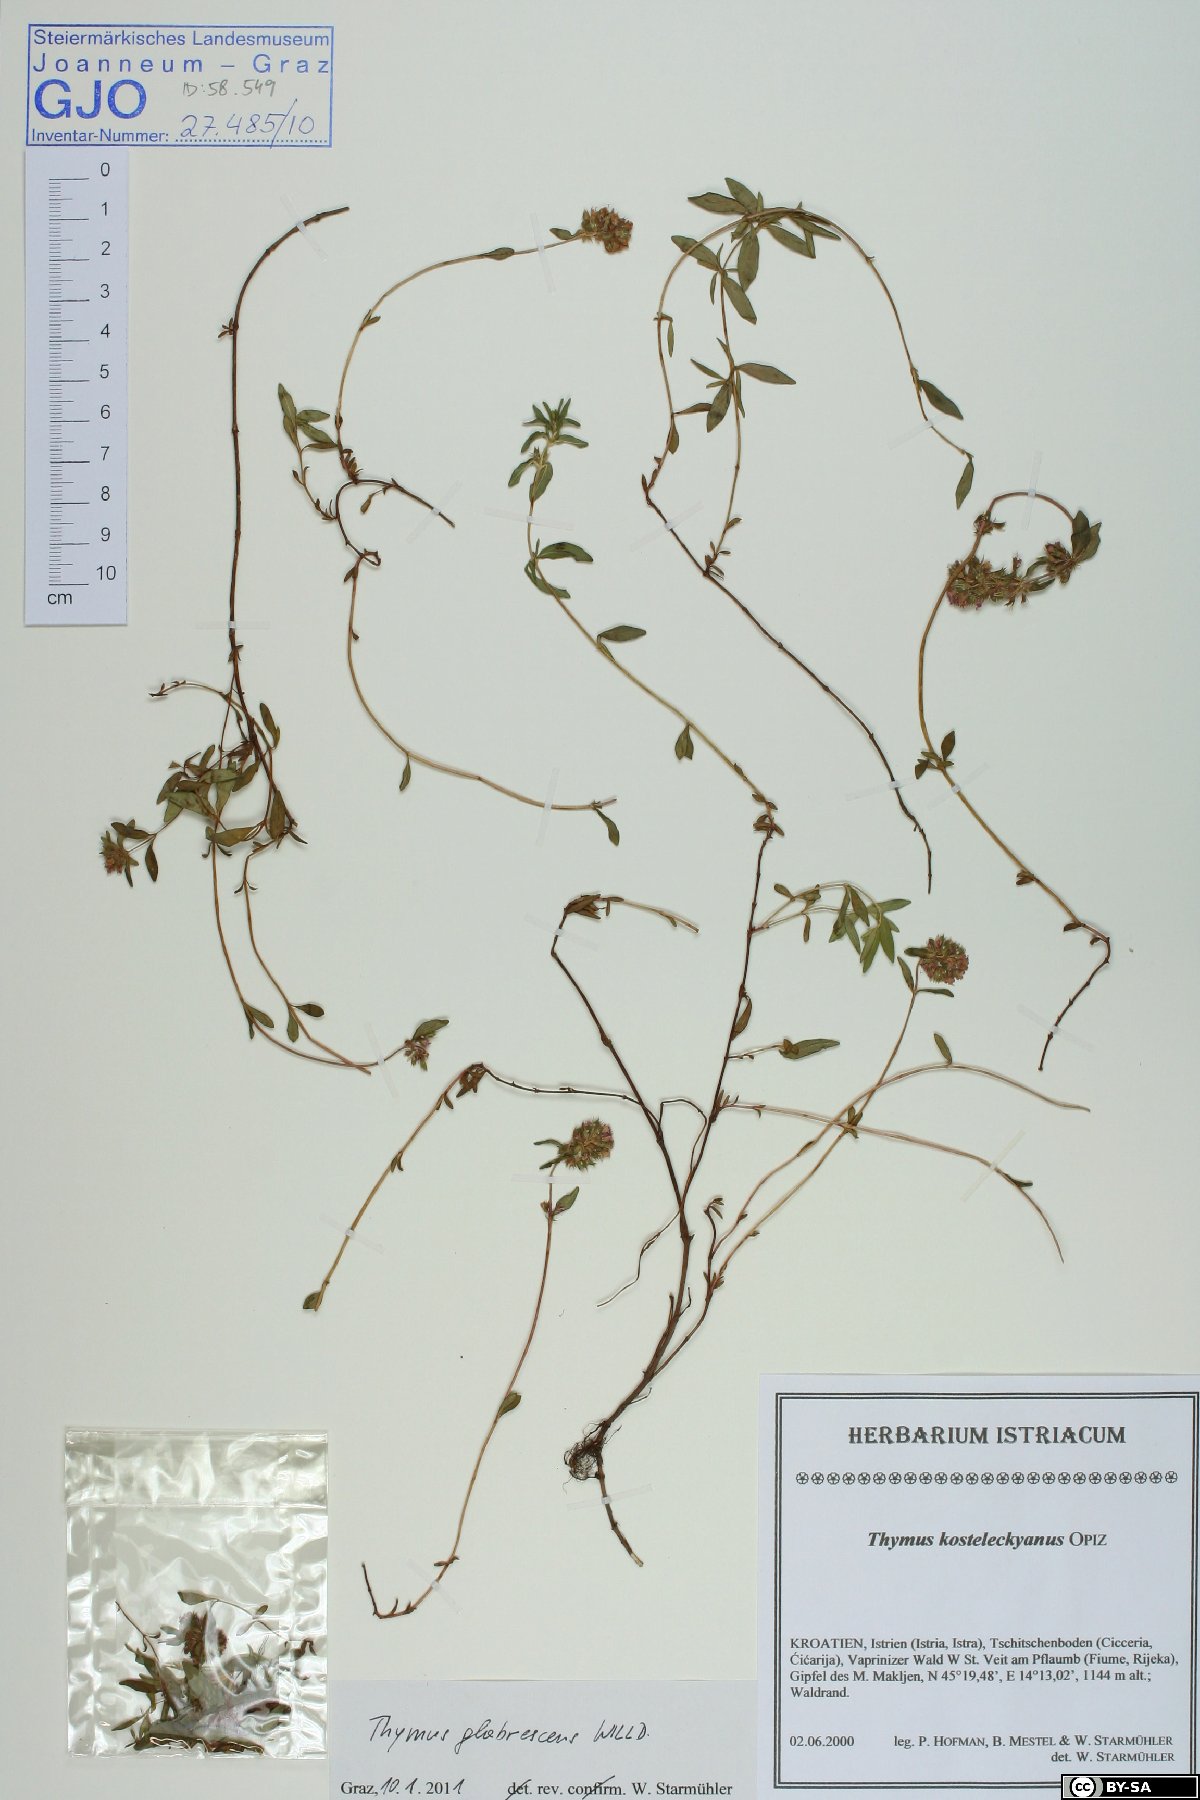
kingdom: Plantae
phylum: Tracheophyta
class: Magnoliopsida
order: Lamiales
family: Lamiaceae
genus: Thymus
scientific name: Thymus kosteleckyanus
